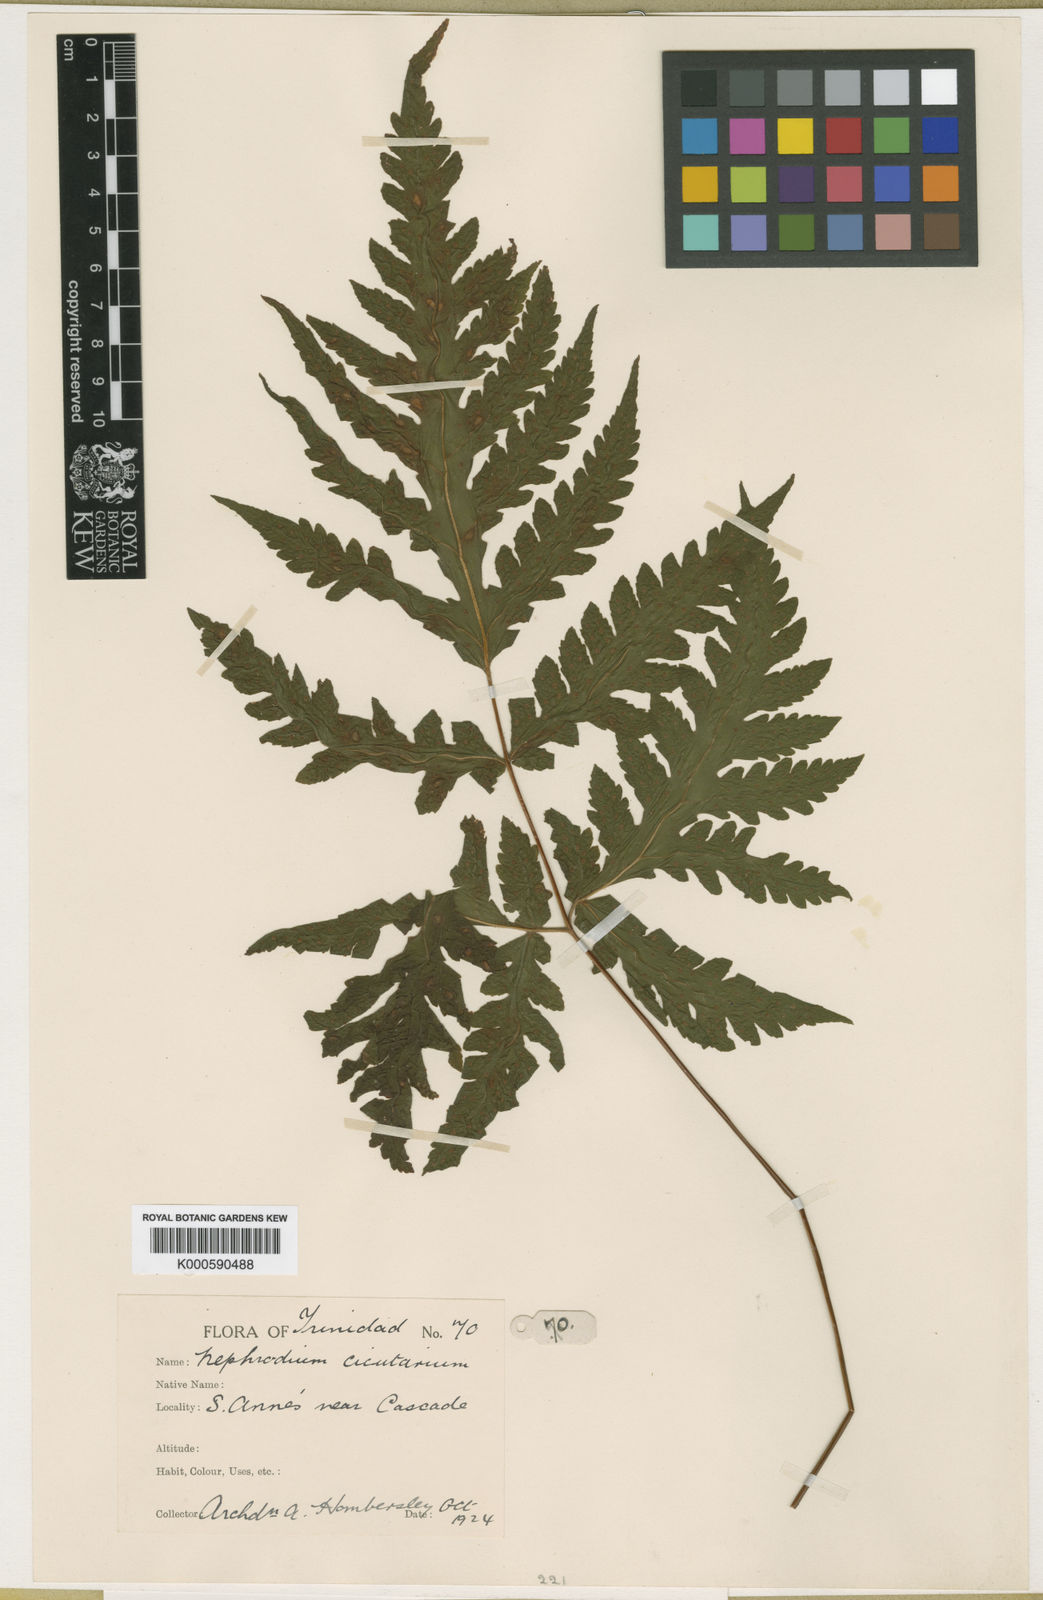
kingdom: Plantae
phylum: Tracheophyta
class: Polypodiopsida
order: Polypodiales
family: Tectariaceae
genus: Tectaria
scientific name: Tectaria trinitensis
